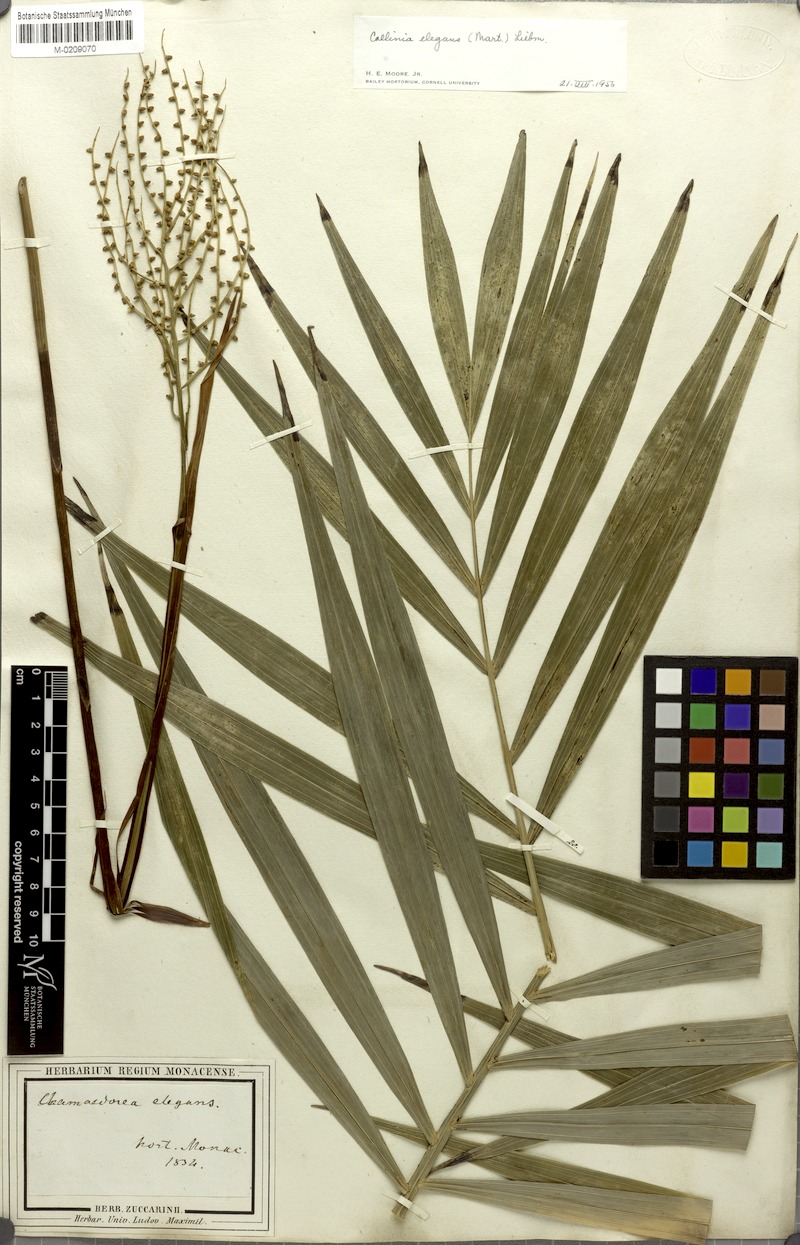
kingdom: Plantae
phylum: Tracheophyta
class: Liliopsida
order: Arecales
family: Arecaceae
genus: Chamaedorea
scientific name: Chamaedorea elegans
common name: Good-luck palm
